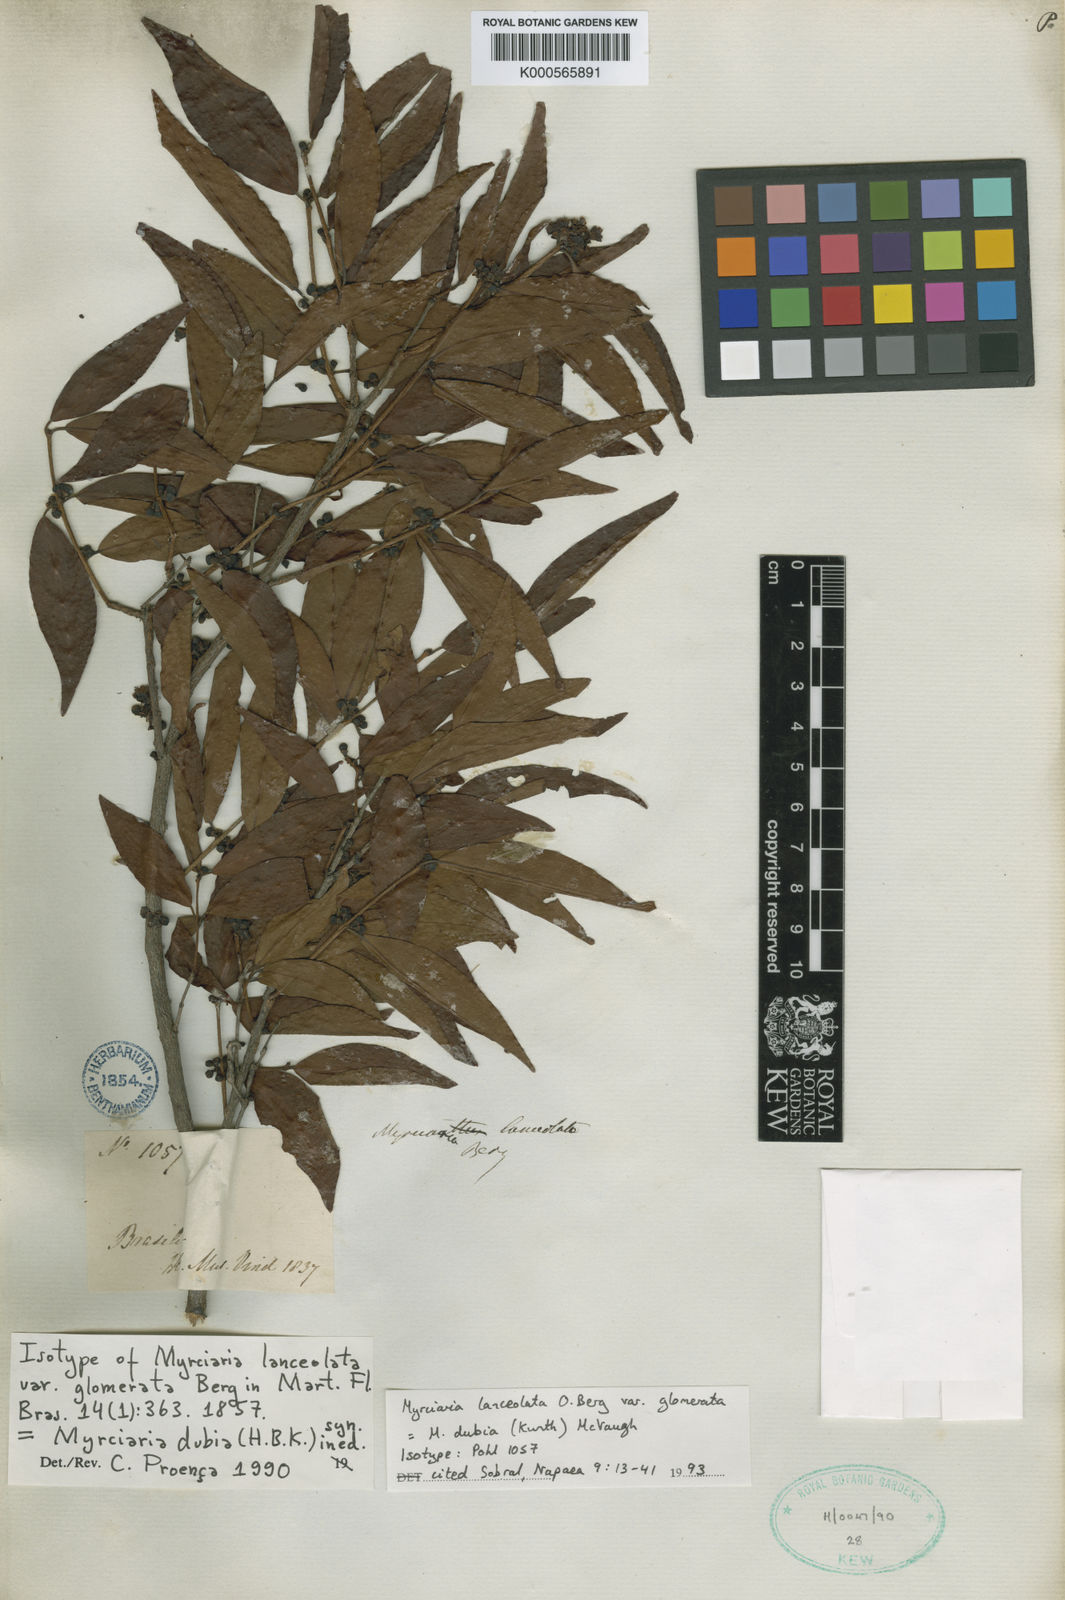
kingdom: Plantae
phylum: Tracheophyta
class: Magnoliopsida
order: Myrtales
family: Myrtaceae
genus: Myrciaria
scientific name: Myrciaria dubia
